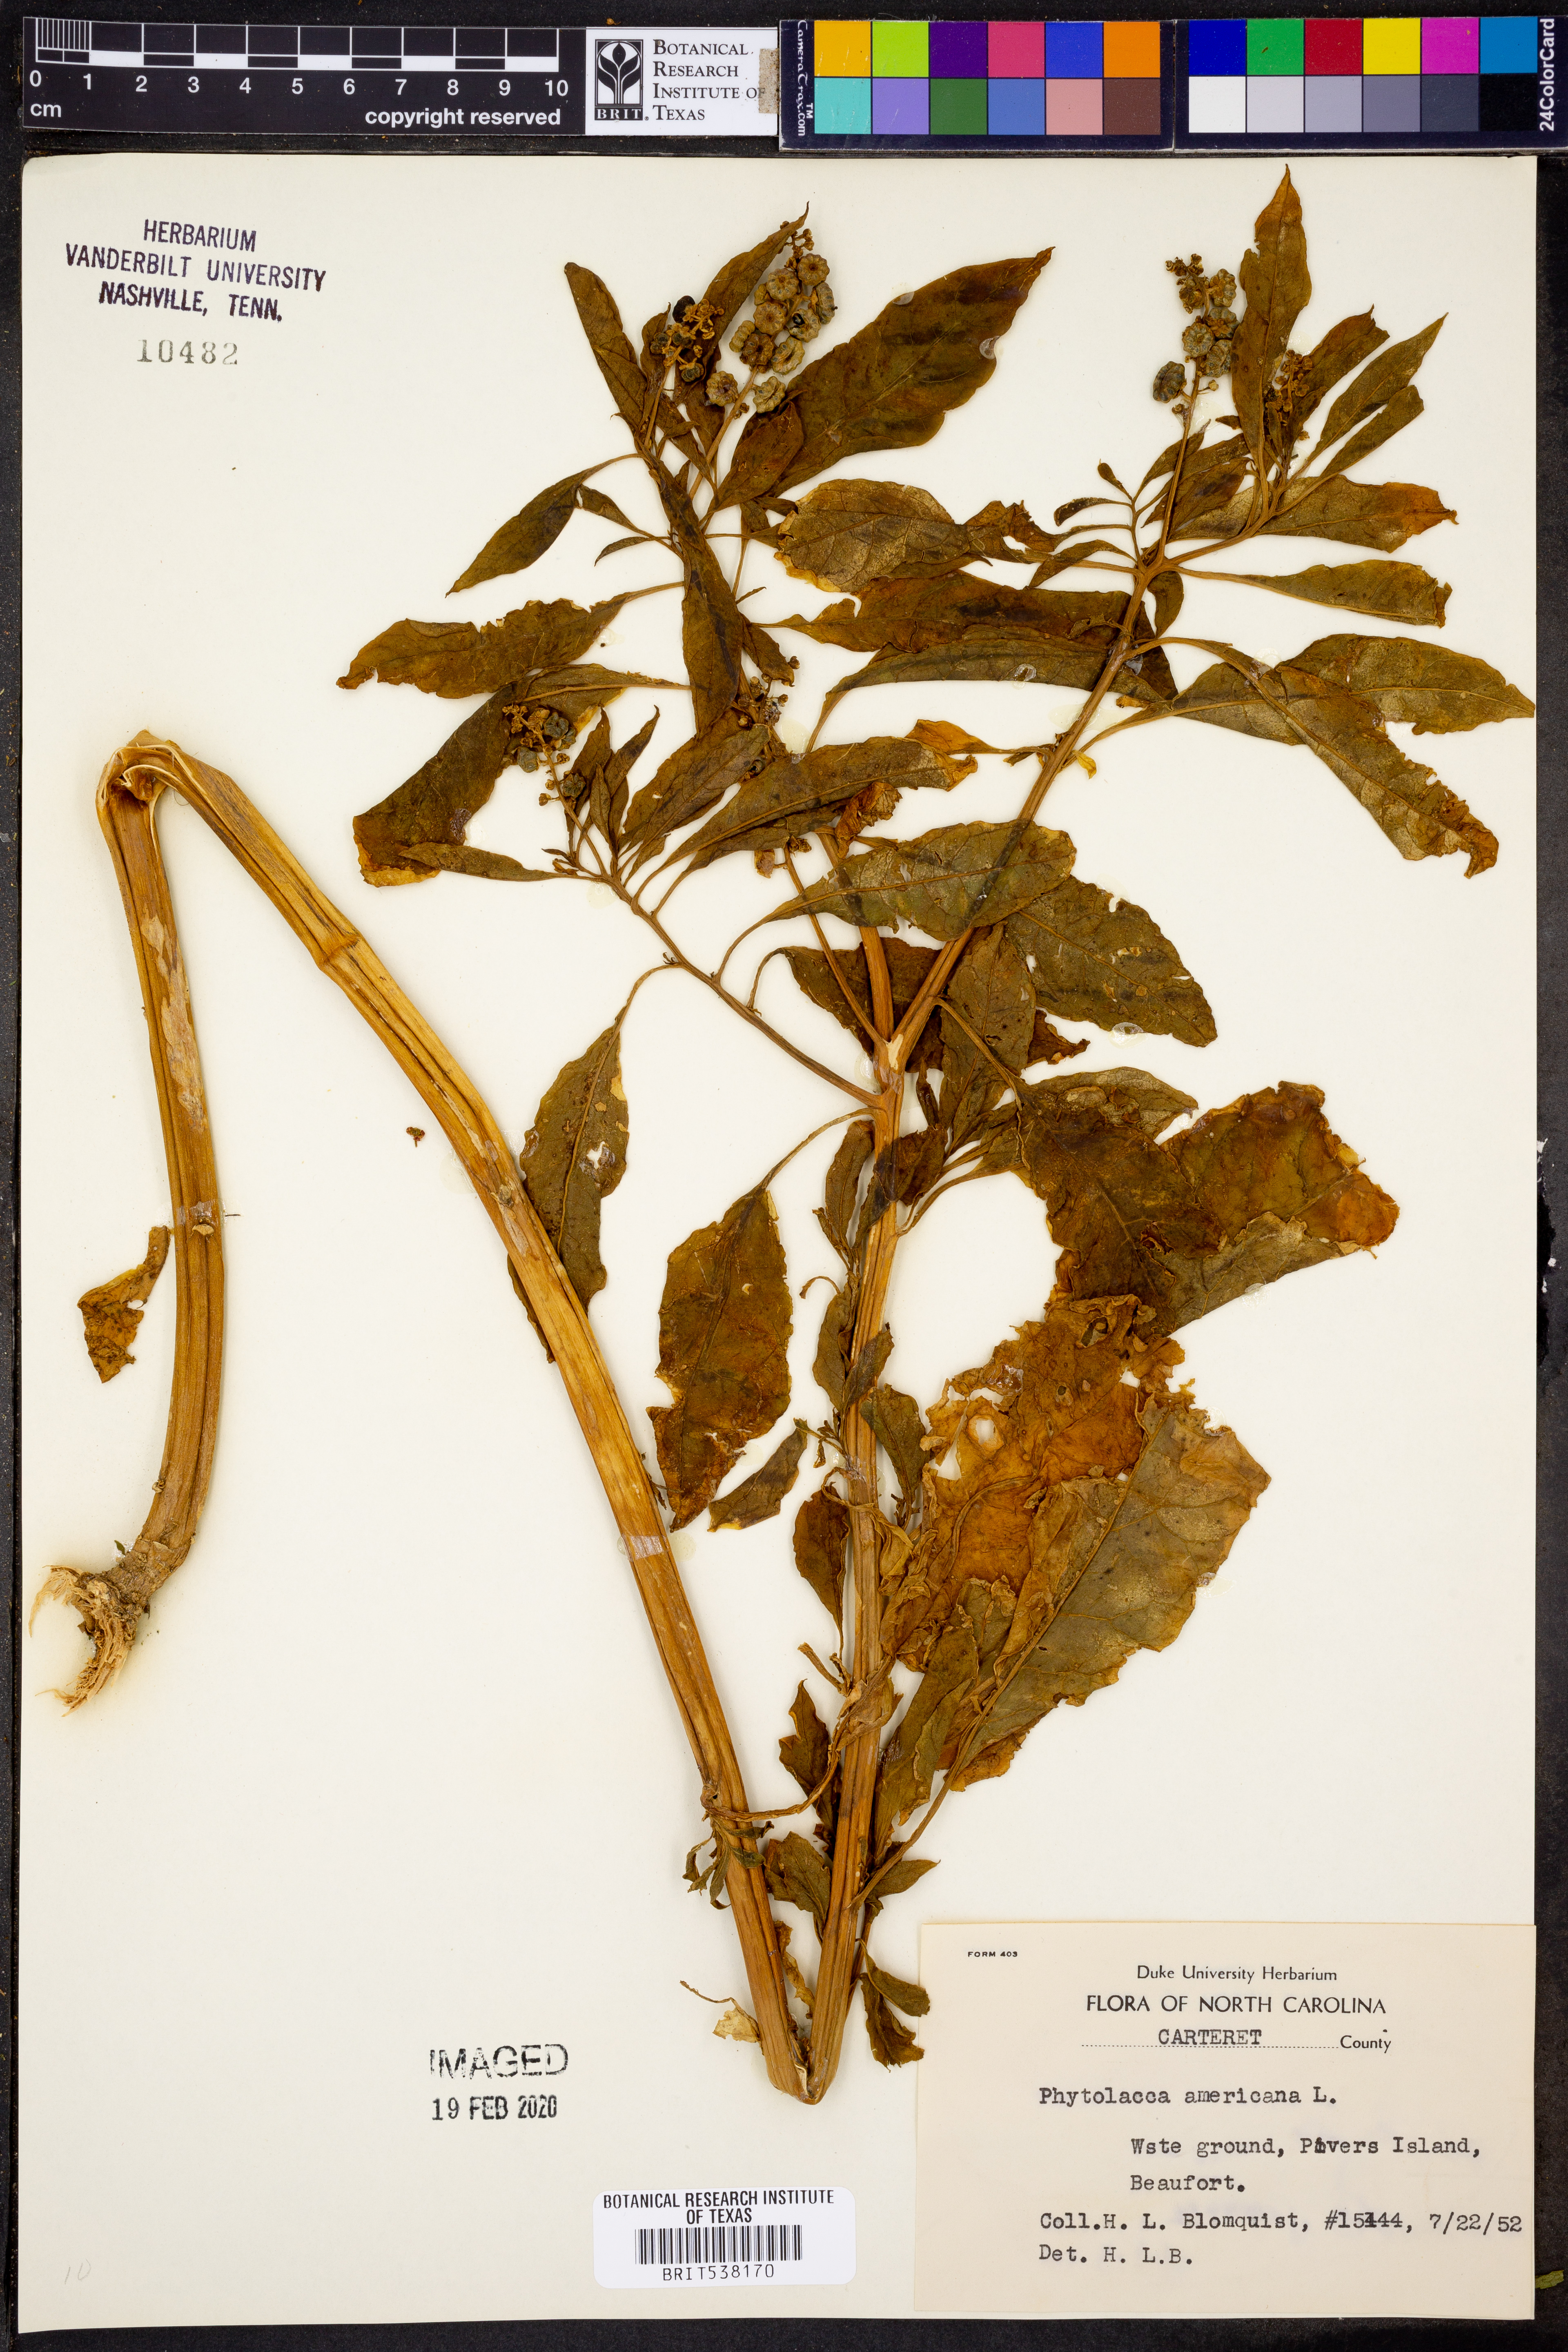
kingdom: Plantae
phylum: Tracheophyta
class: Magnoliopsida
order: Caryophyllales
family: Phytolaccaceae
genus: Phytolacca
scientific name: Phytolacca americana
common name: American pokeweed
